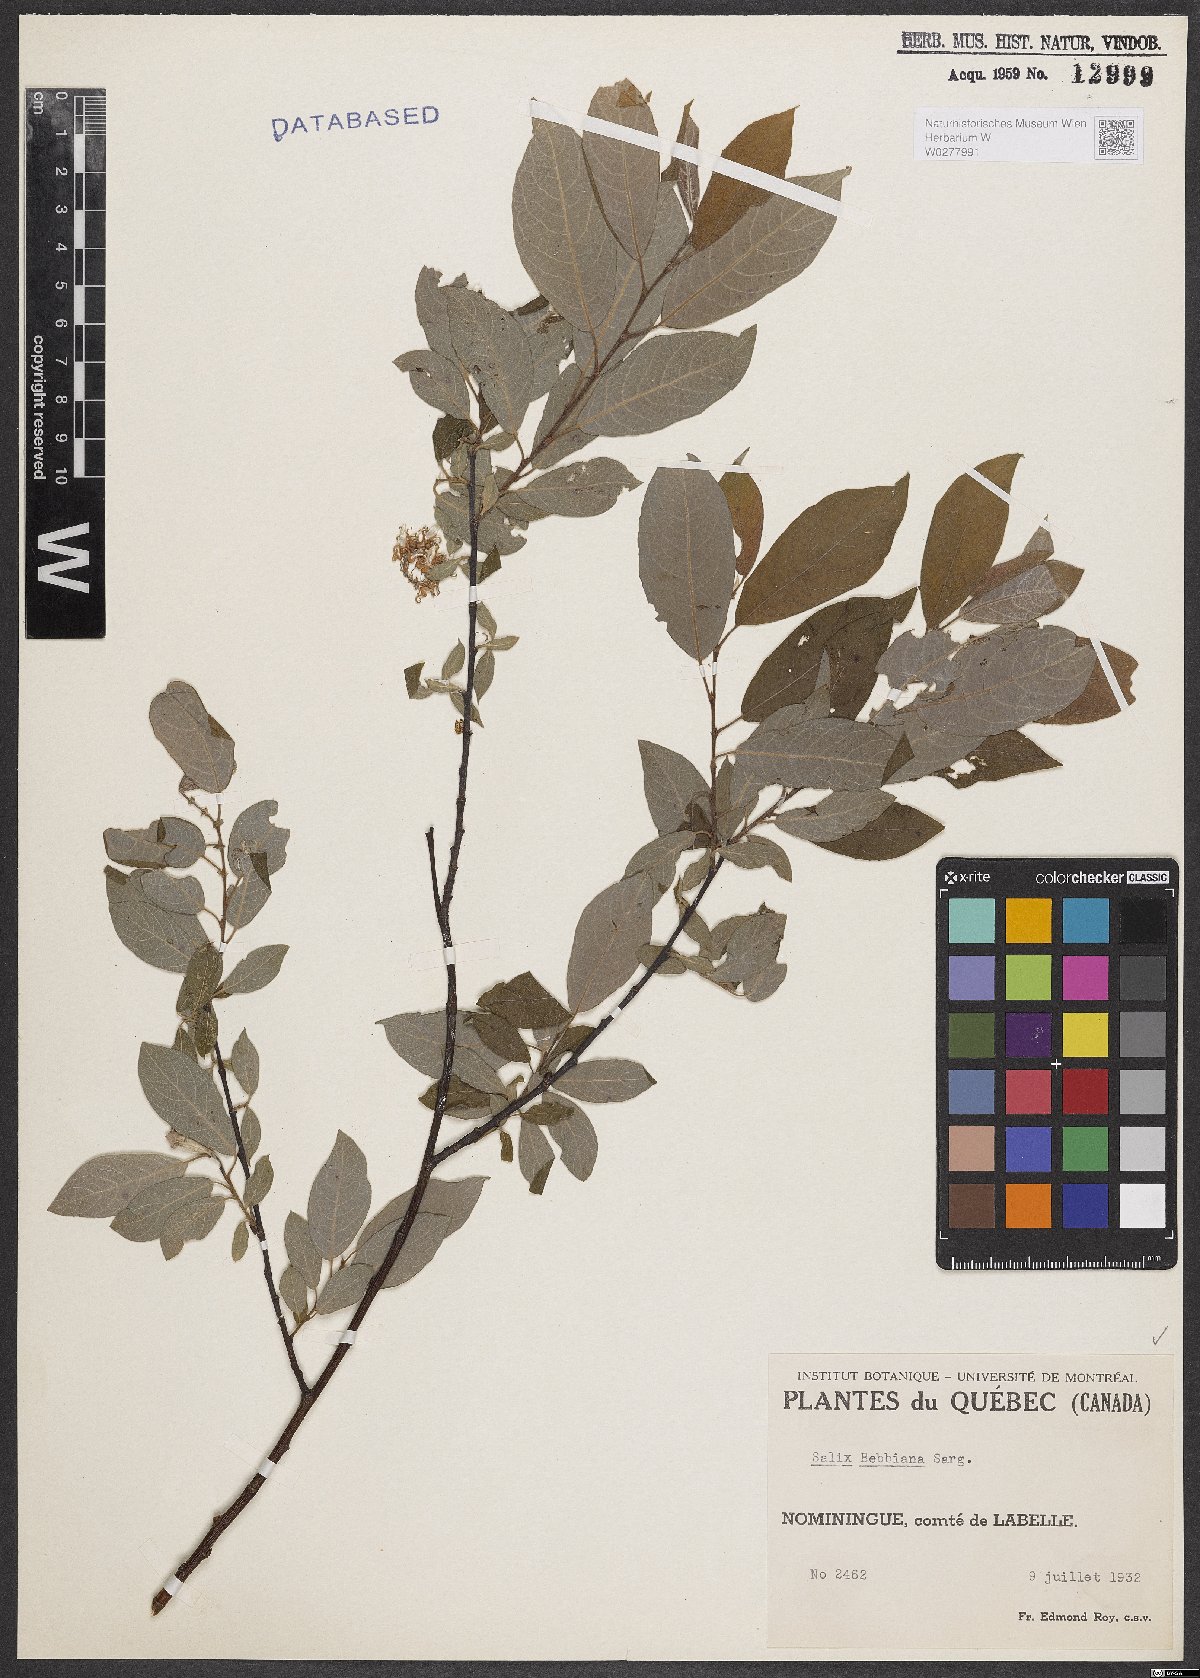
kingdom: Plantae
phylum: Tracheophyta
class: Magnoliopsida
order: Malpighiales
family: Salicaceae
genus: Salix
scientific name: Salix bebbiana
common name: Bebb's willow
